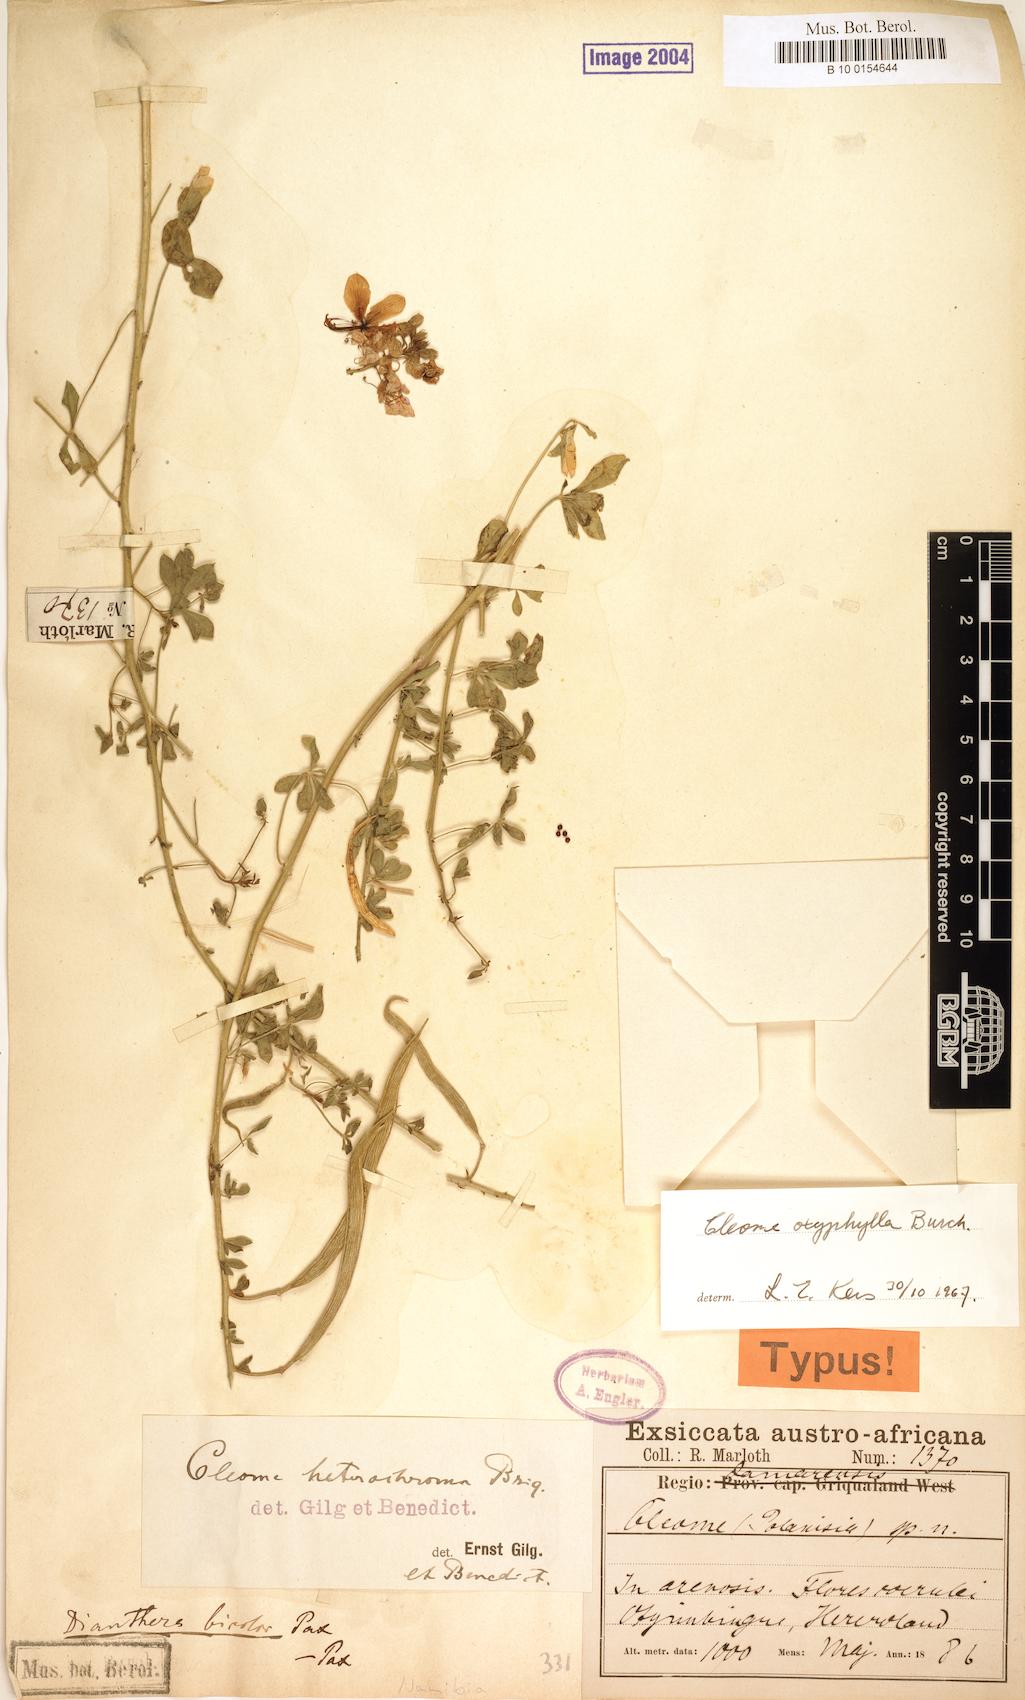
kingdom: Plantae
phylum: Tracheophyta
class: Magnoliopsida
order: Brassicales
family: Cleomaceae
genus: Sieruela
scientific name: Sieruela oxyphylla
